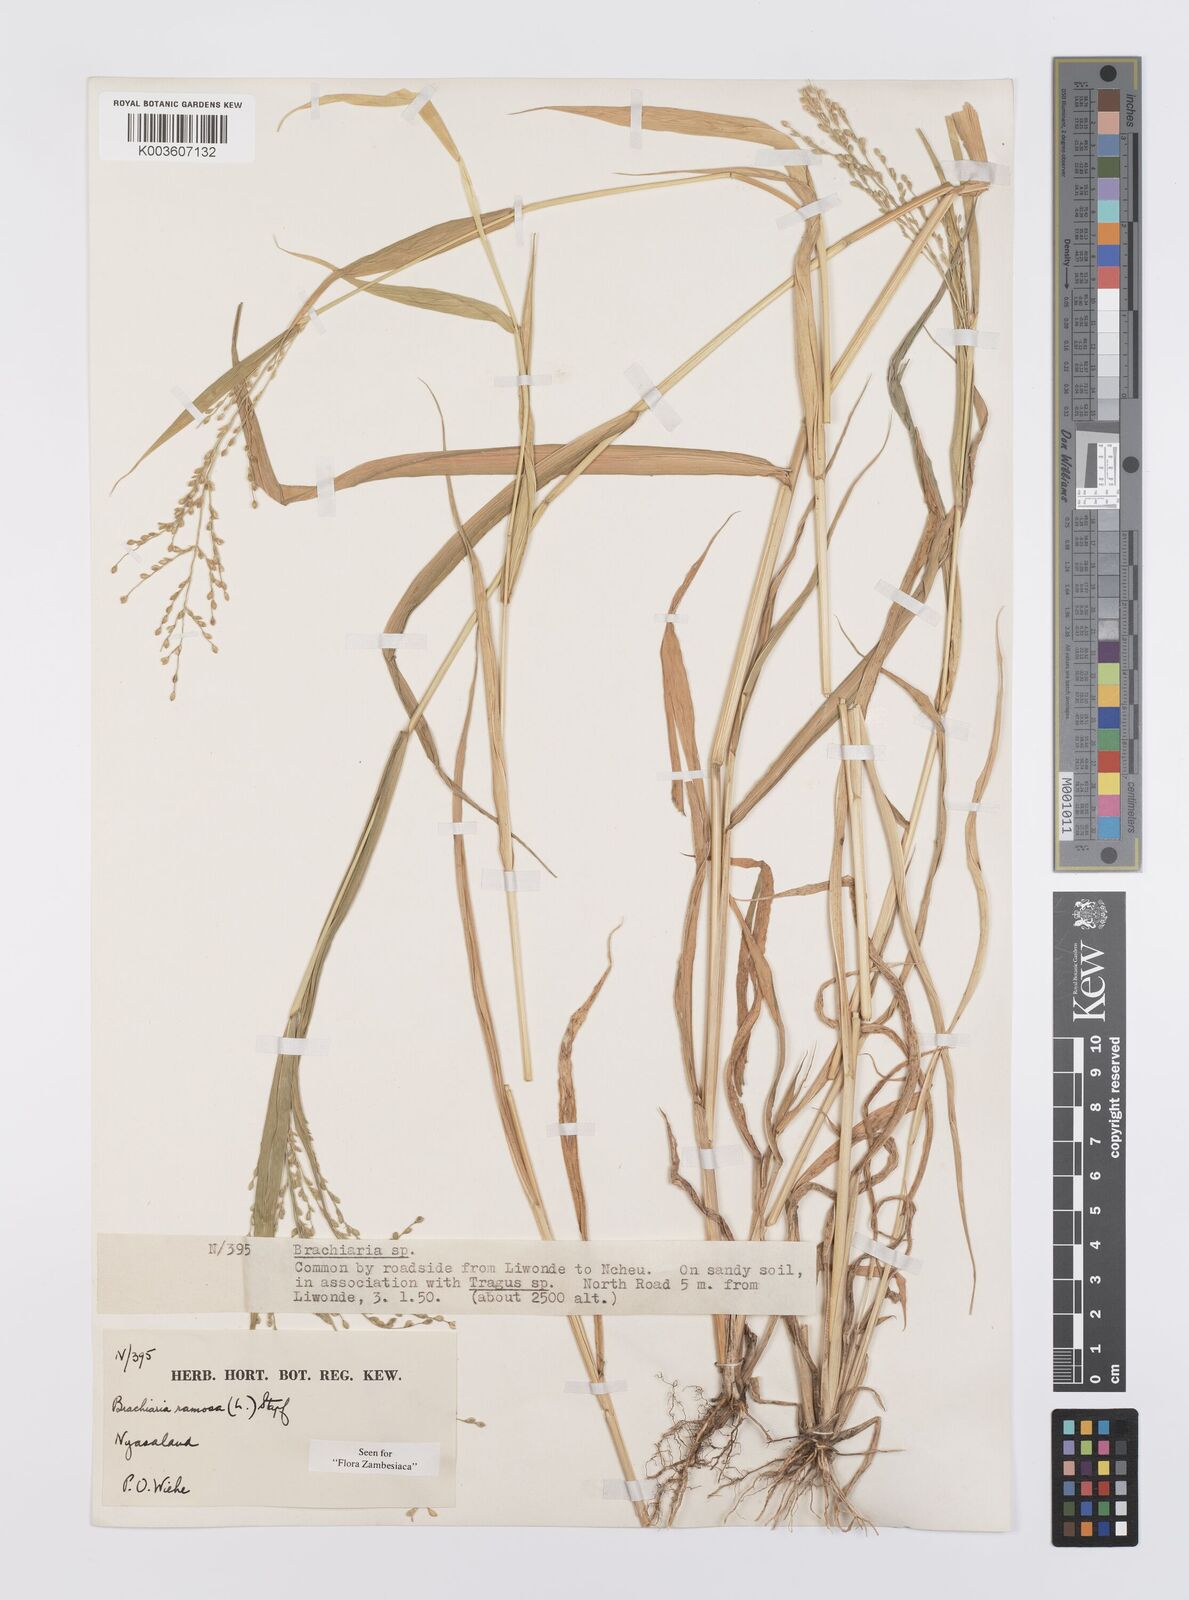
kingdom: Plantae
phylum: Tracheophyta
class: Liliopsida
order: Poales
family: Poaceae
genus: Urochloa
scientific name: Urochloa ramosa
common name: Browntop millet
